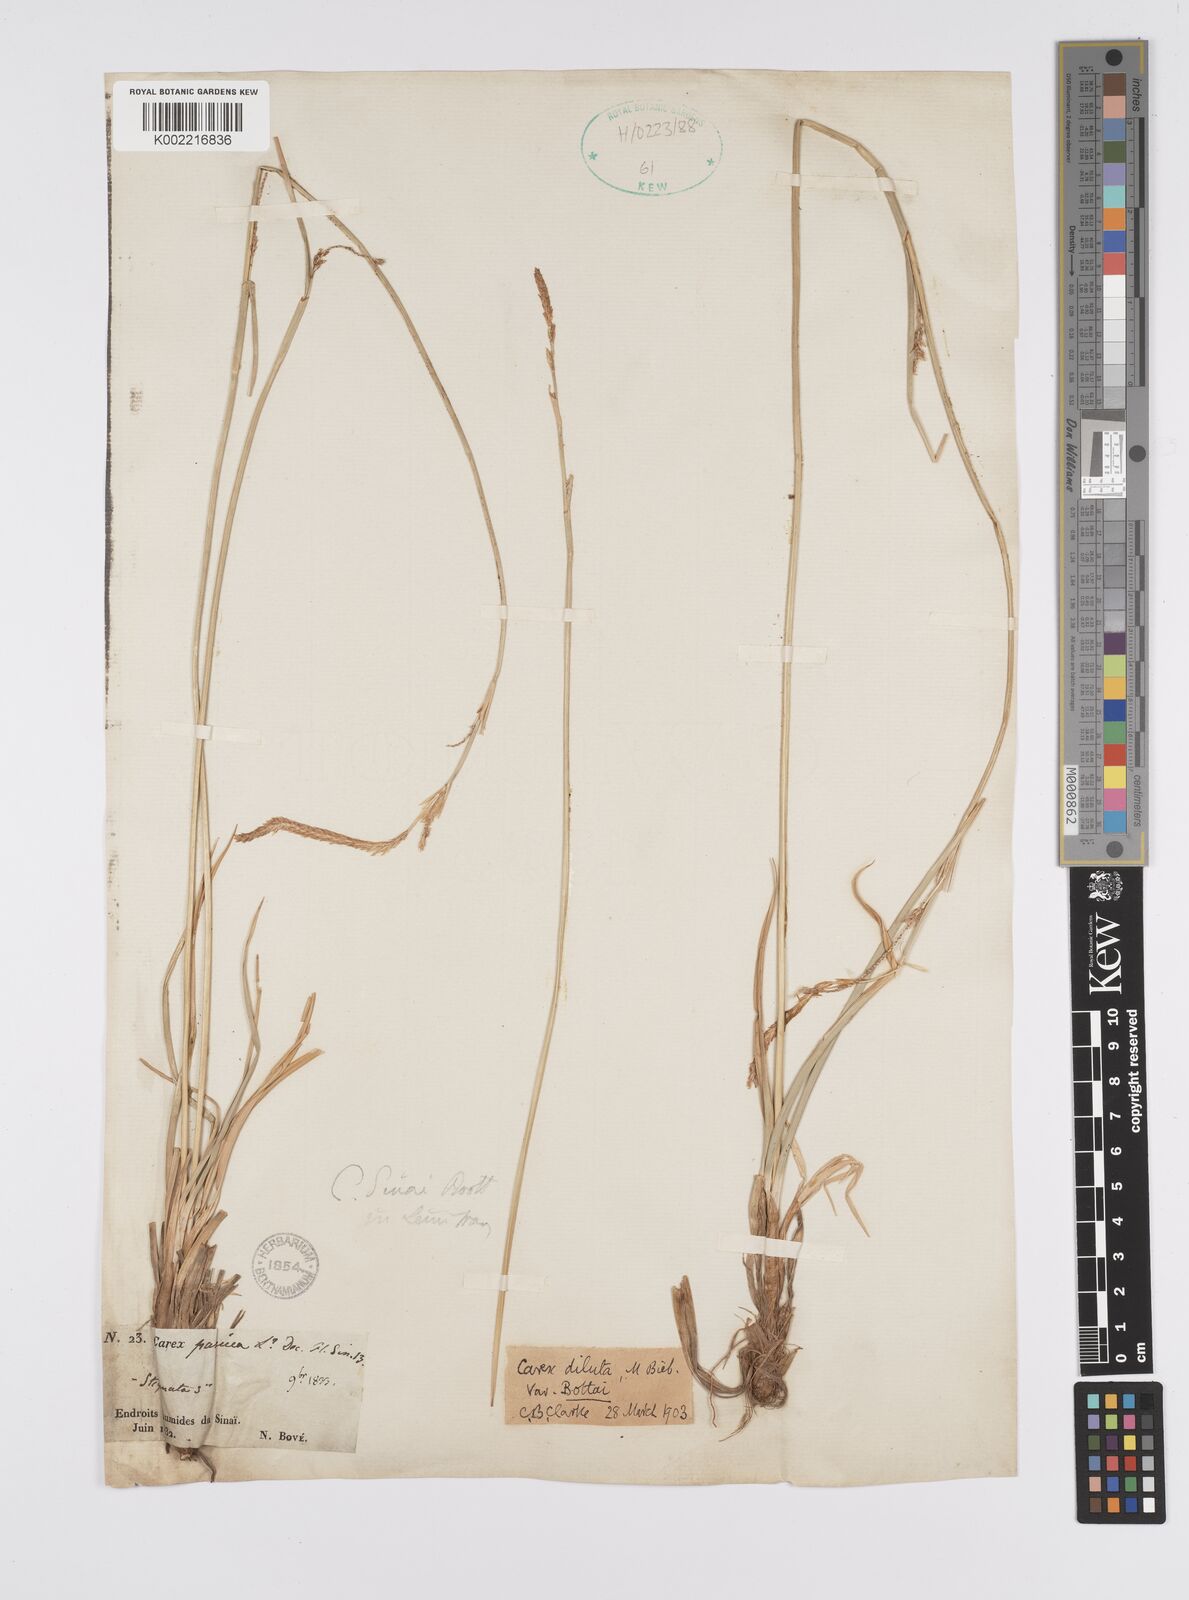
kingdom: Plantae
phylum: Tracheophyta
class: Liliopsida
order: Poales
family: Cyperaceae
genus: Carex
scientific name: Carex diluta
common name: Sedge
